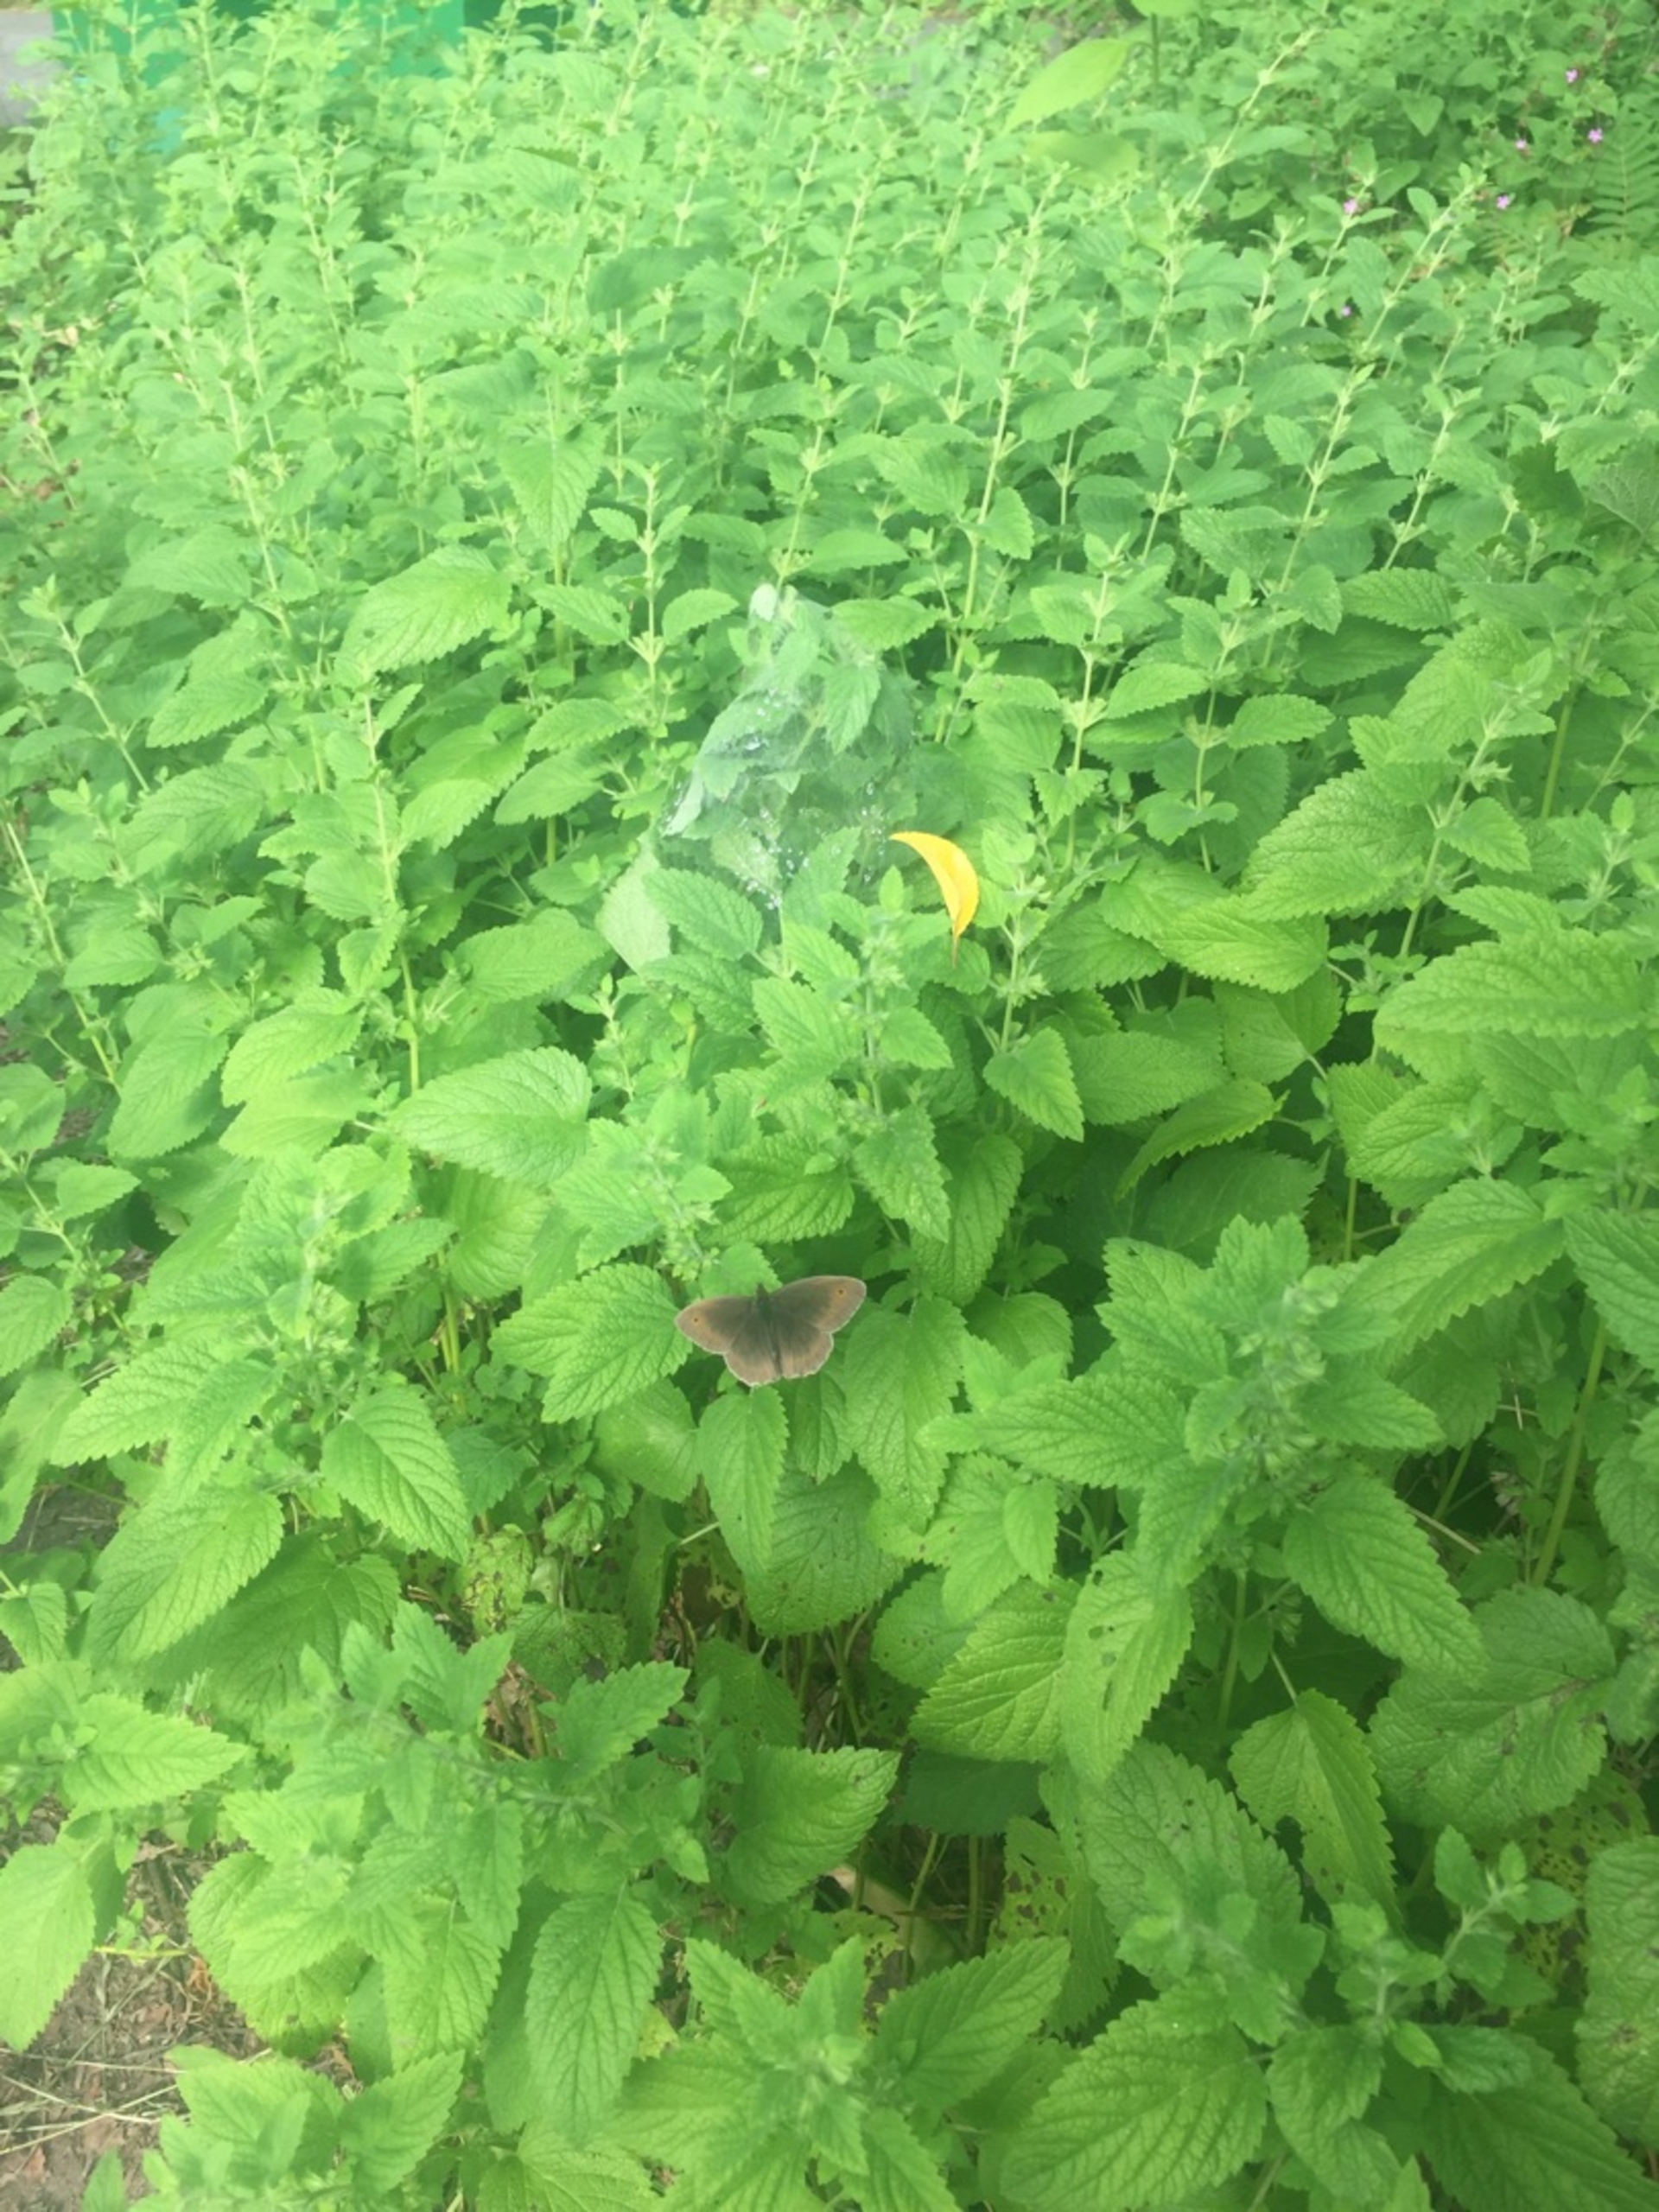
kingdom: Animalia
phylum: Arthropoda
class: Insecta
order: Lepidoptera
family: Nymphalidae
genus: Maniola
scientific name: Maniola jurtina
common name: Græsrandøje
